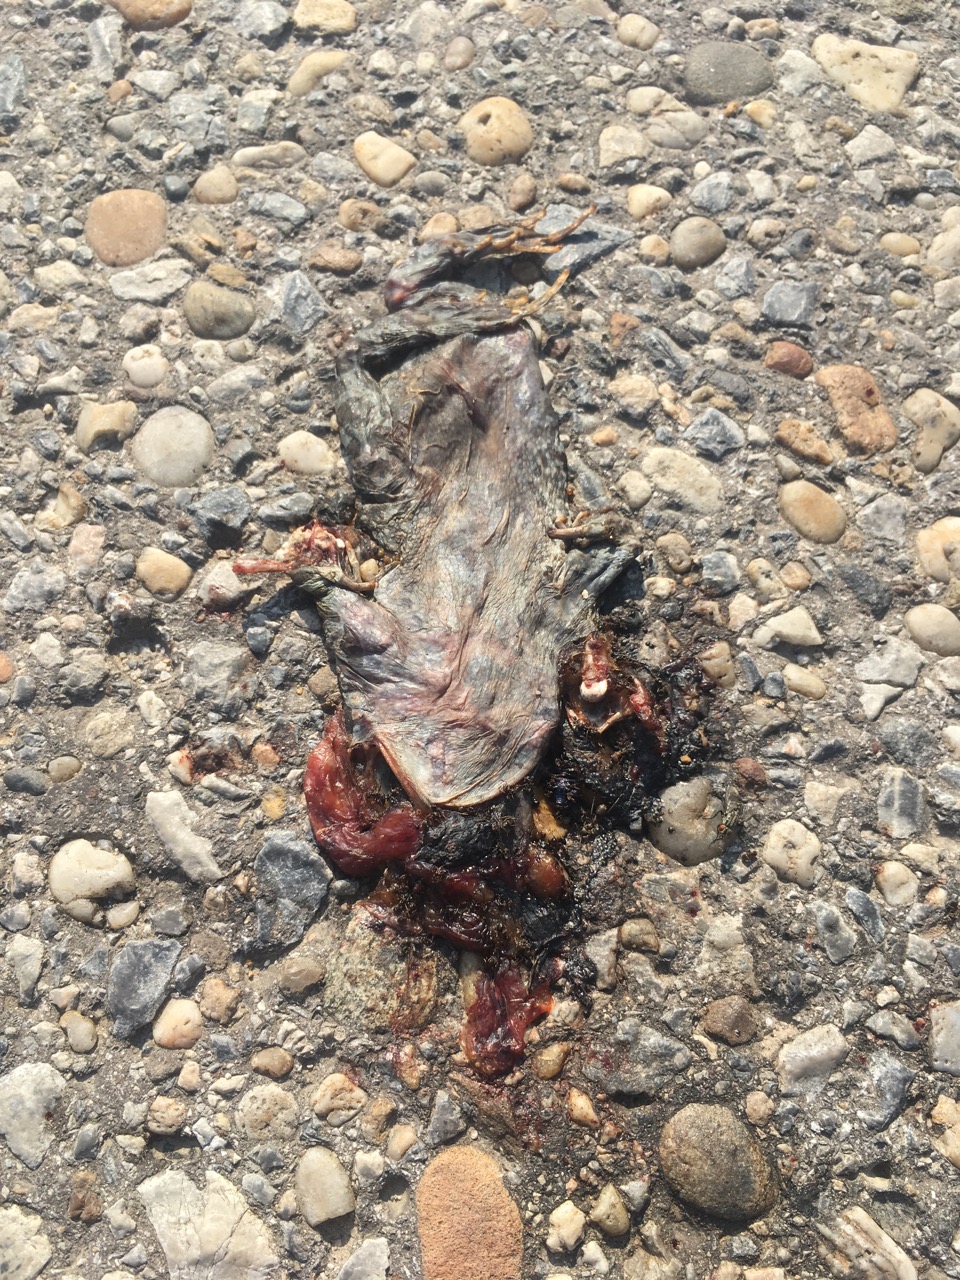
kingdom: Animalia
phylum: Chordata
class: Amphibia
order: Anura
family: Bufonidae
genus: Bufotes
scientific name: Bufotes viridis
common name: European green toad
